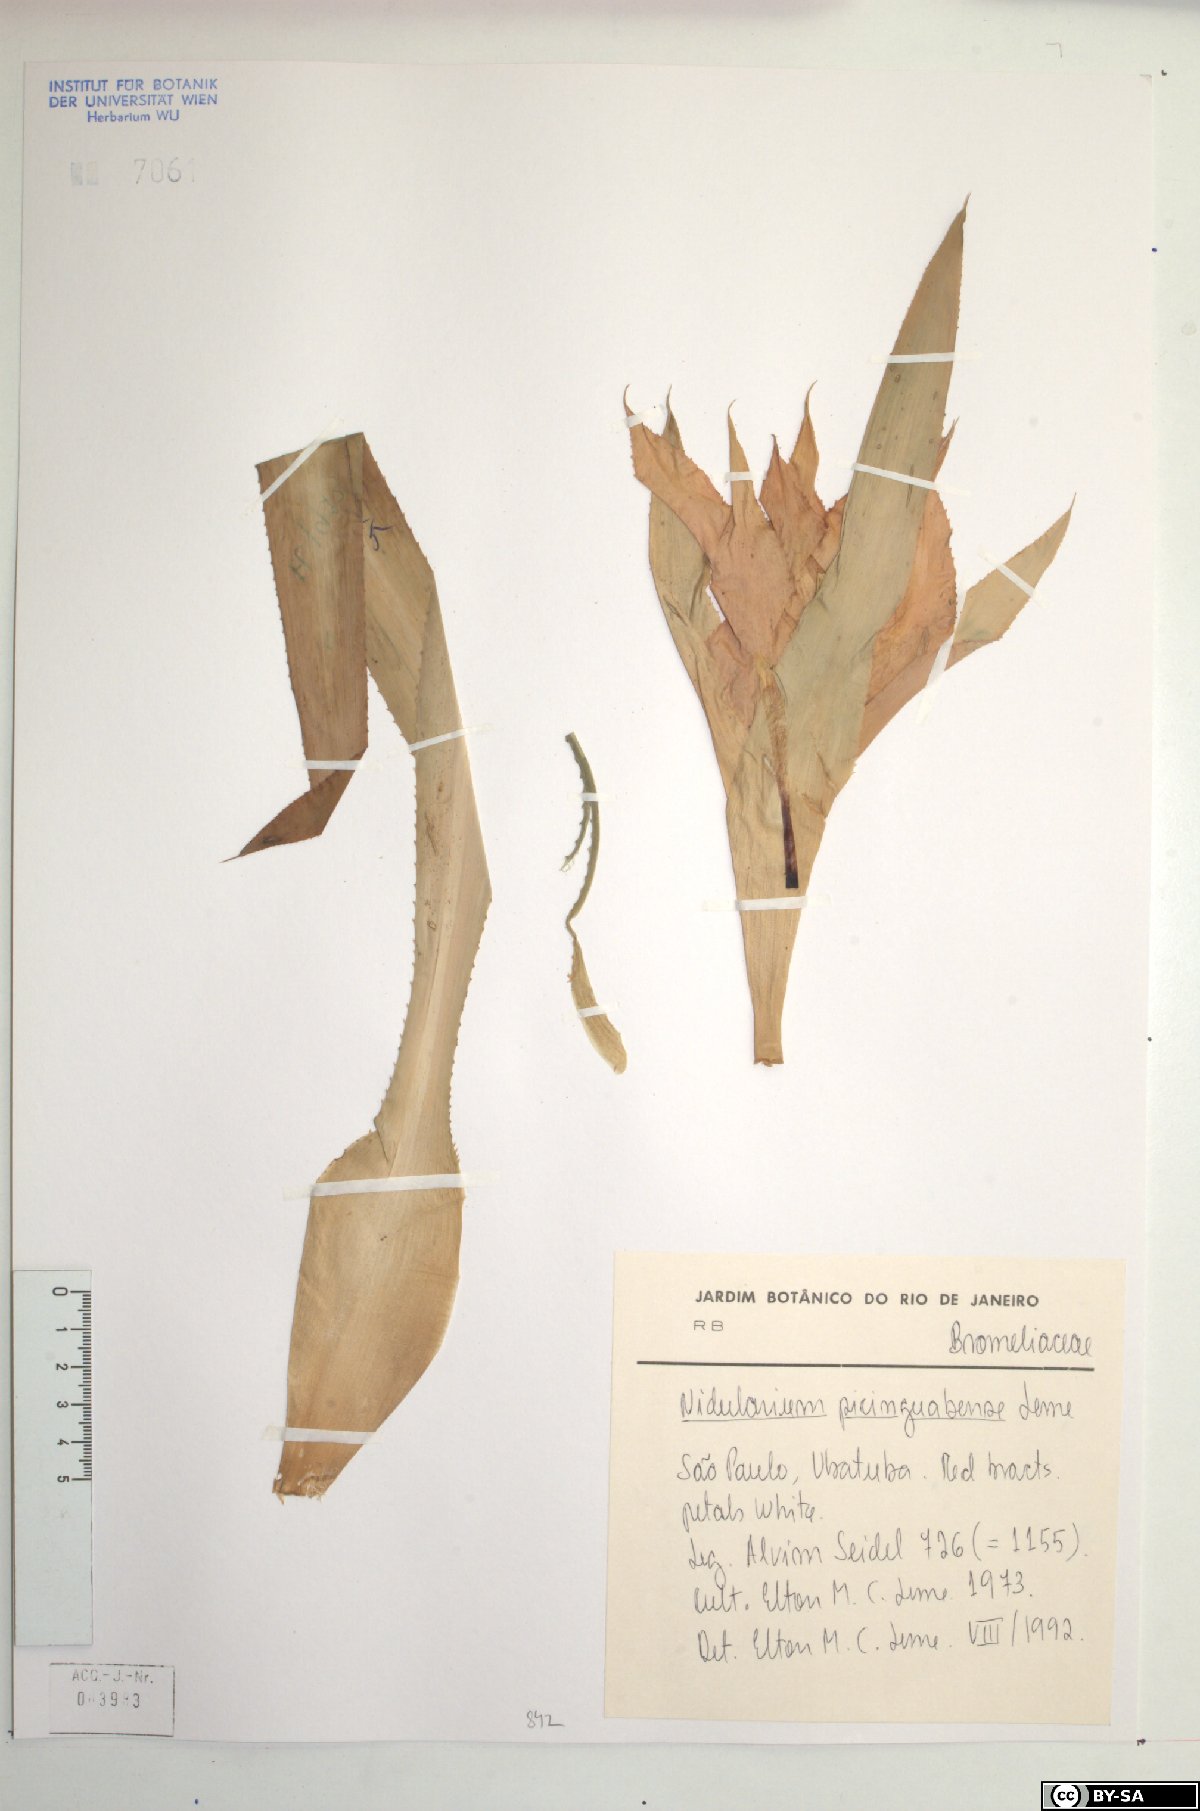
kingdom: Plantae
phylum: Tracheophyta
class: Liliopsida
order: Poales
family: Bromeliaceae
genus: Nidularium
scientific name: Nidularium picinguabense
